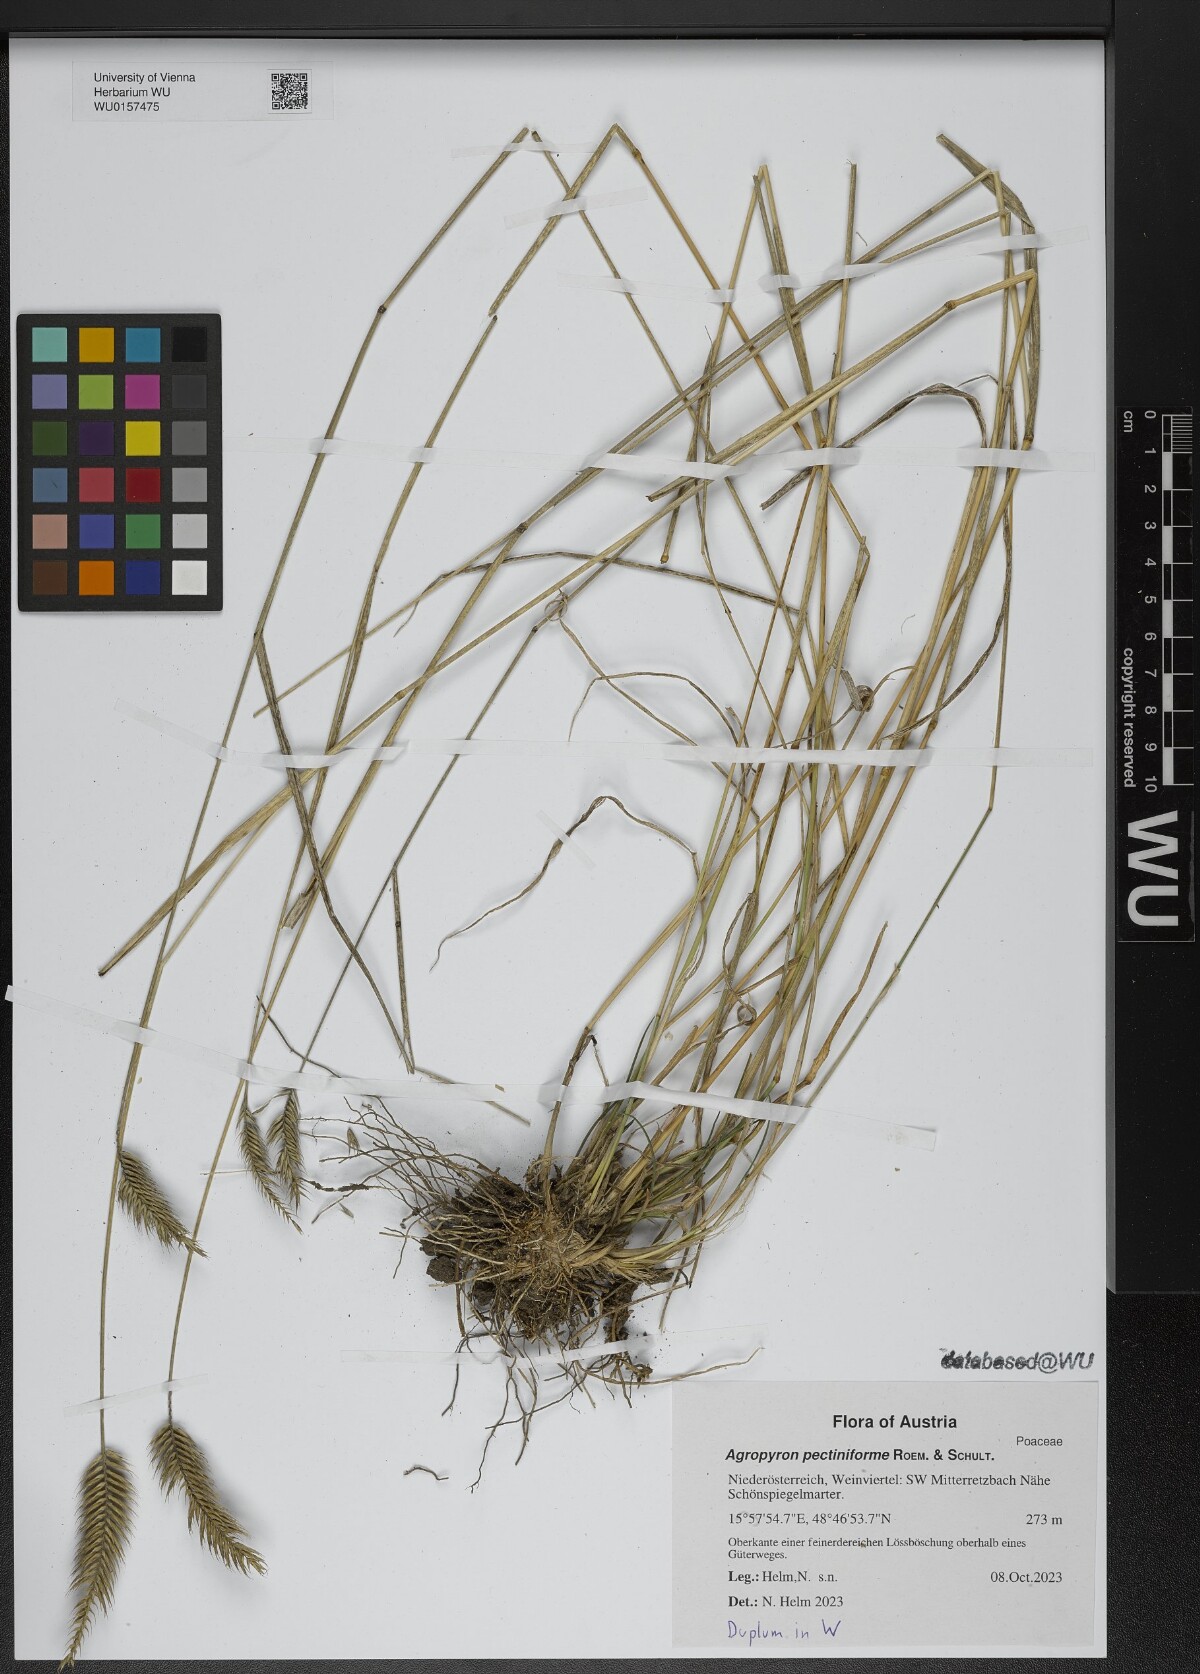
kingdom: Plantae
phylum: Tracheophyta
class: Liliopsida
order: Poales
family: Poaceae
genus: Agropyron
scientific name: Agropyron cristatum
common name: Crested wheatgrass
